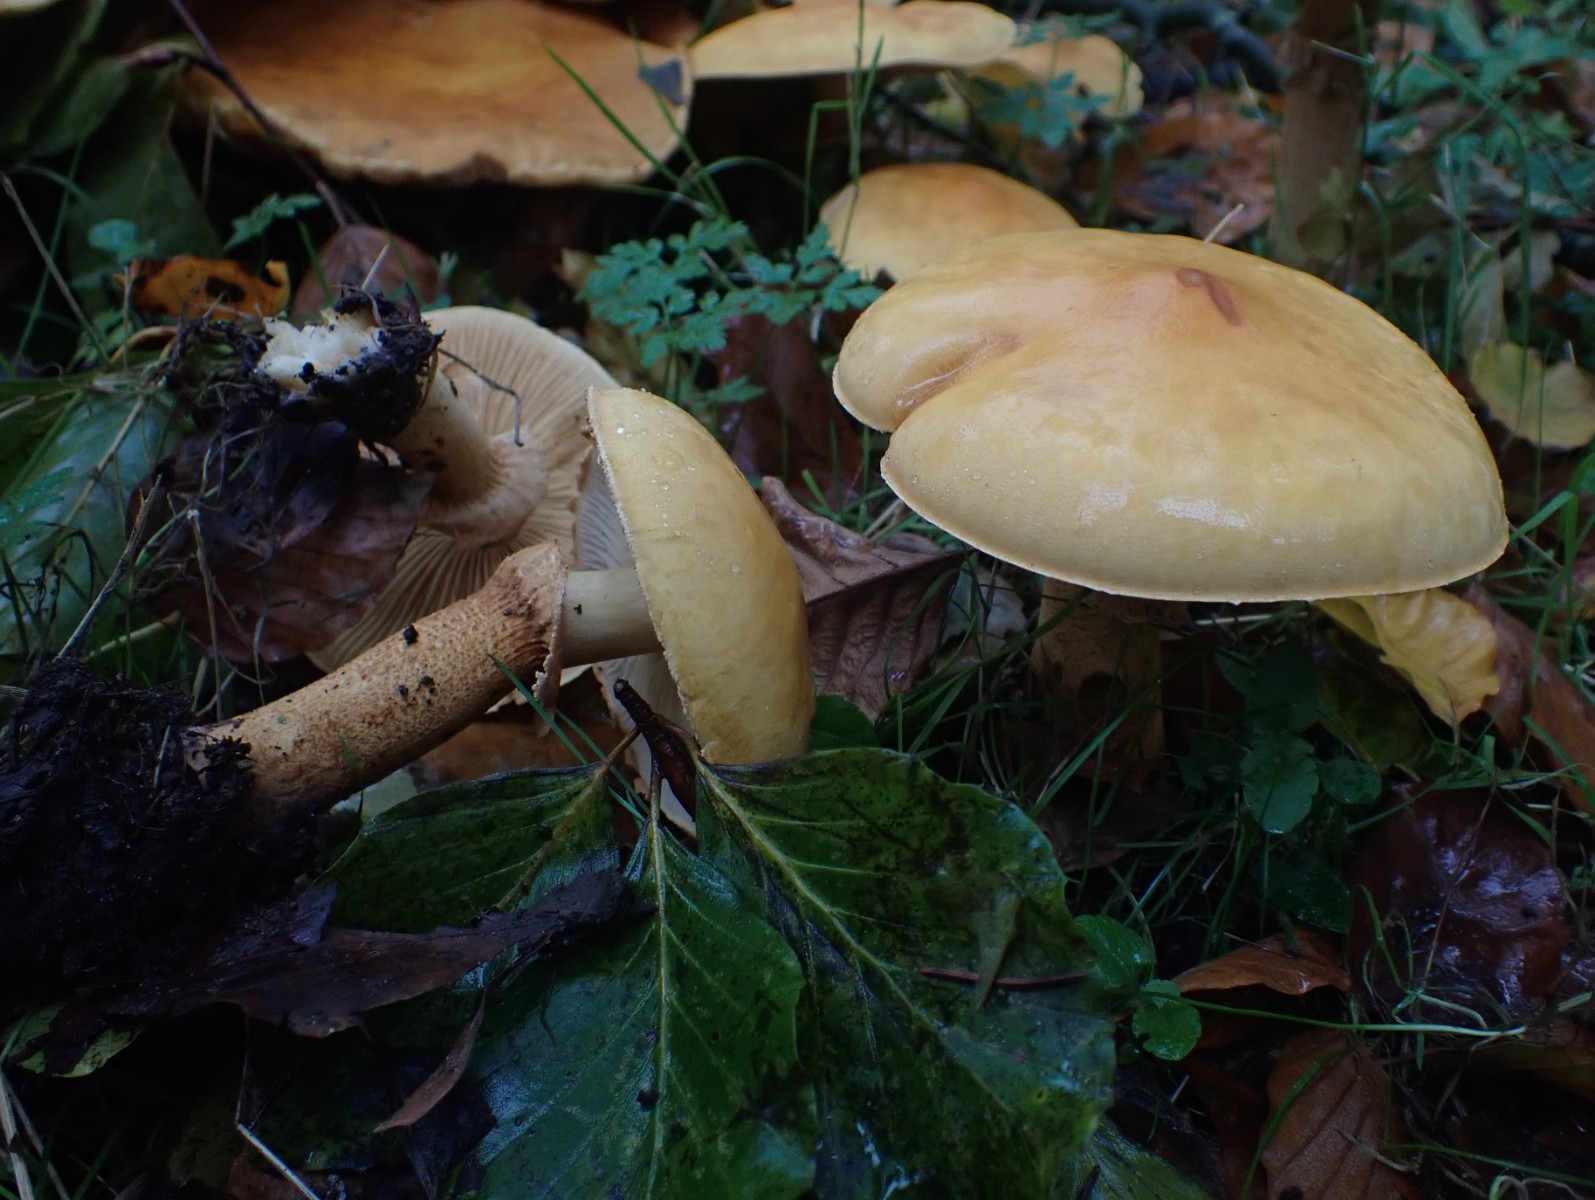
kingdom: Fungi
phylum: Basidiomycota
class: Agaricomycetes
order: Agaricales
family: Tricholomataceae
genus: Phaeolepiota
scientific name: Phaeolepiota aurea
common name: gyldenhat
